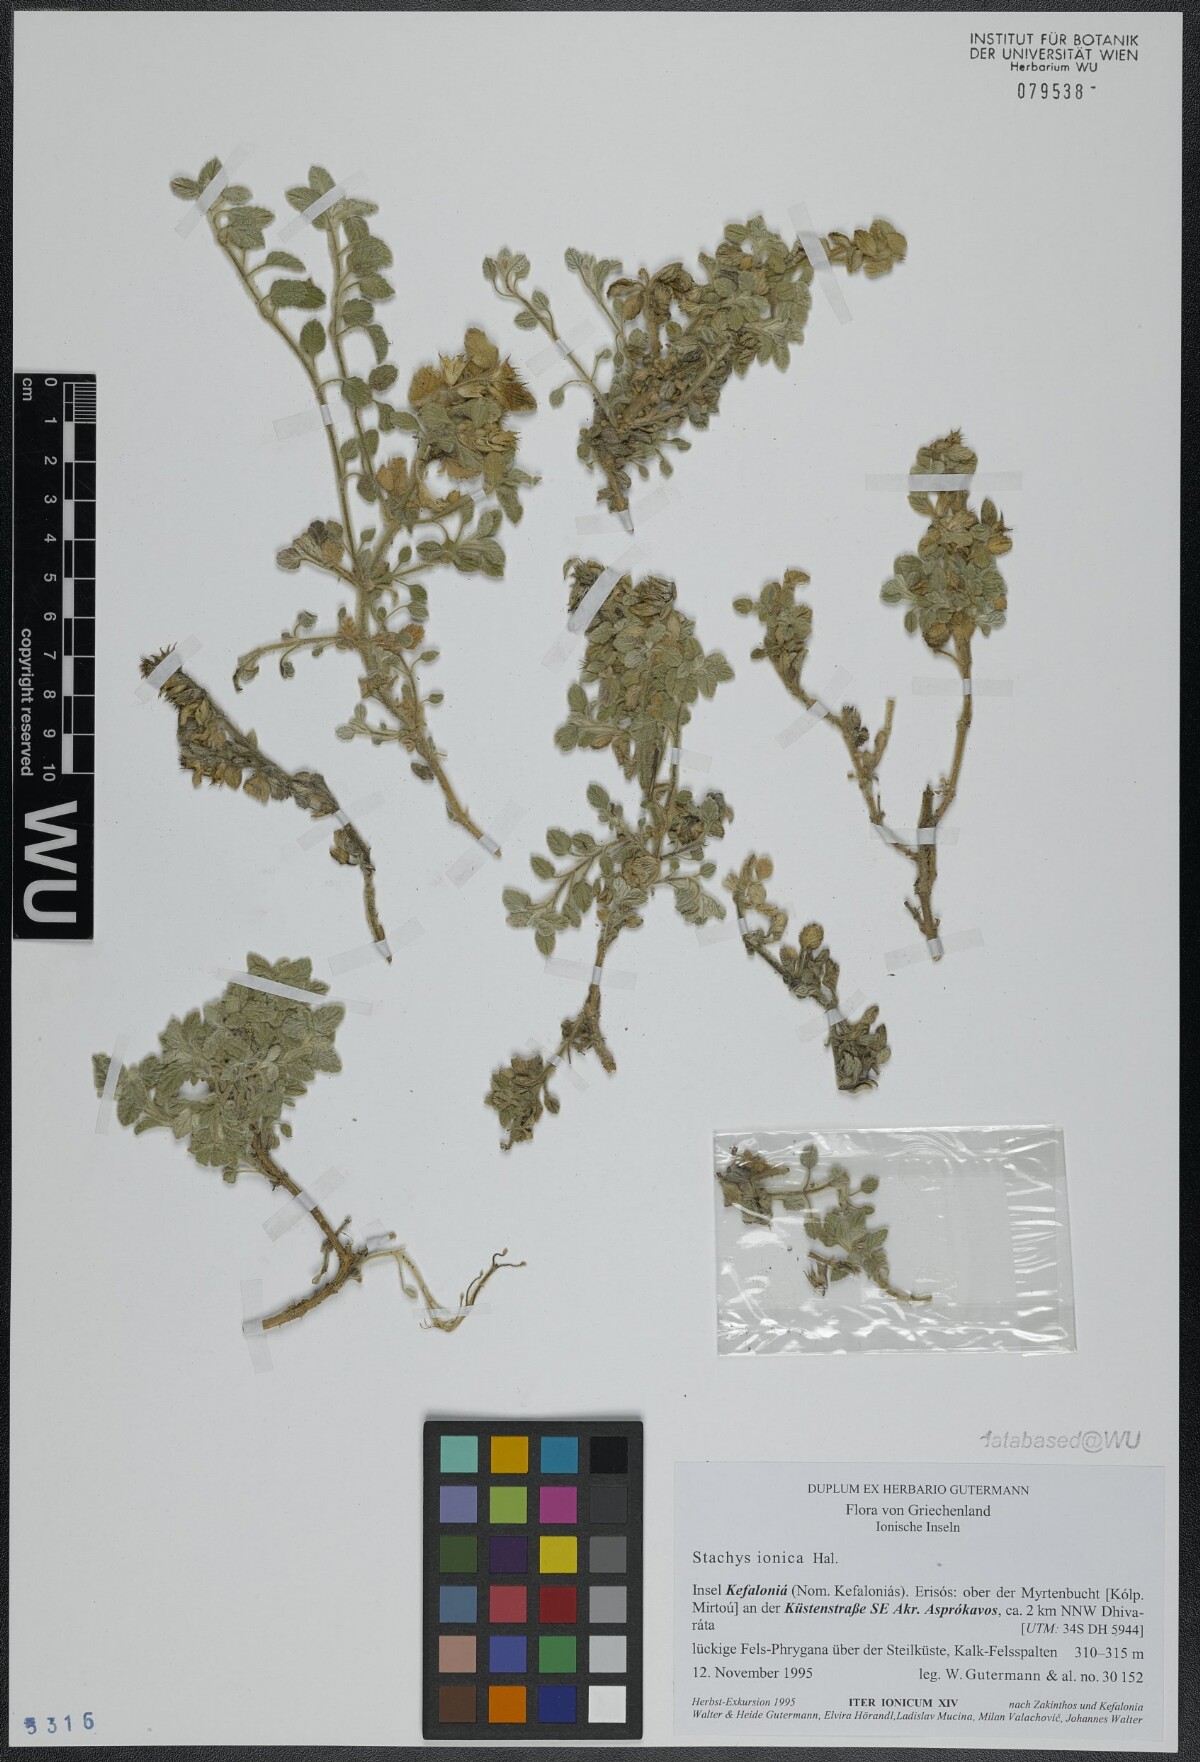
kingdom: Plantae
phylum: Tracheophyta
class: Magnoliopsida
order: Lamiales
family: Lamiaceae
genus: Stachys
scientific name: Stachys ionica
